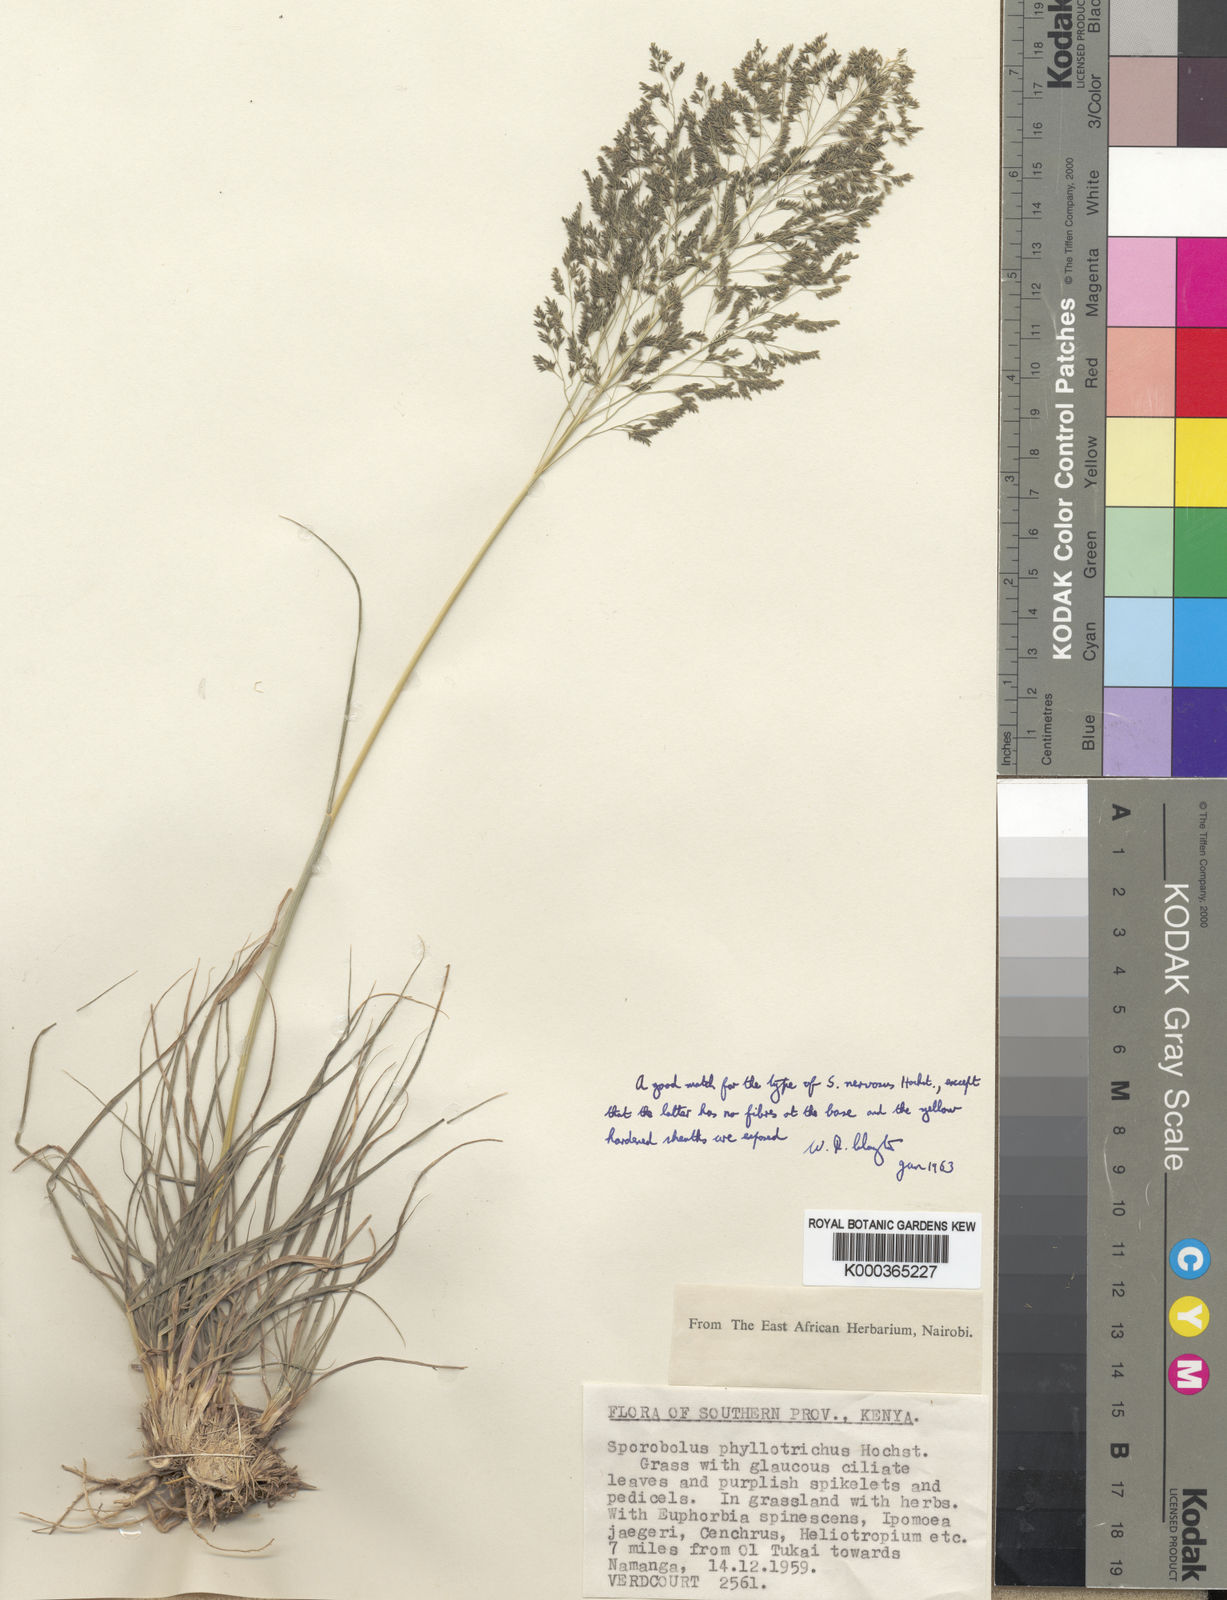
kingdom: Plantae
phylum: Tracheophyta
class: Liliopsida
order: Poales
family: Poaceae
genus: Sporobolus
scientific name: Sporobolus nervosus
